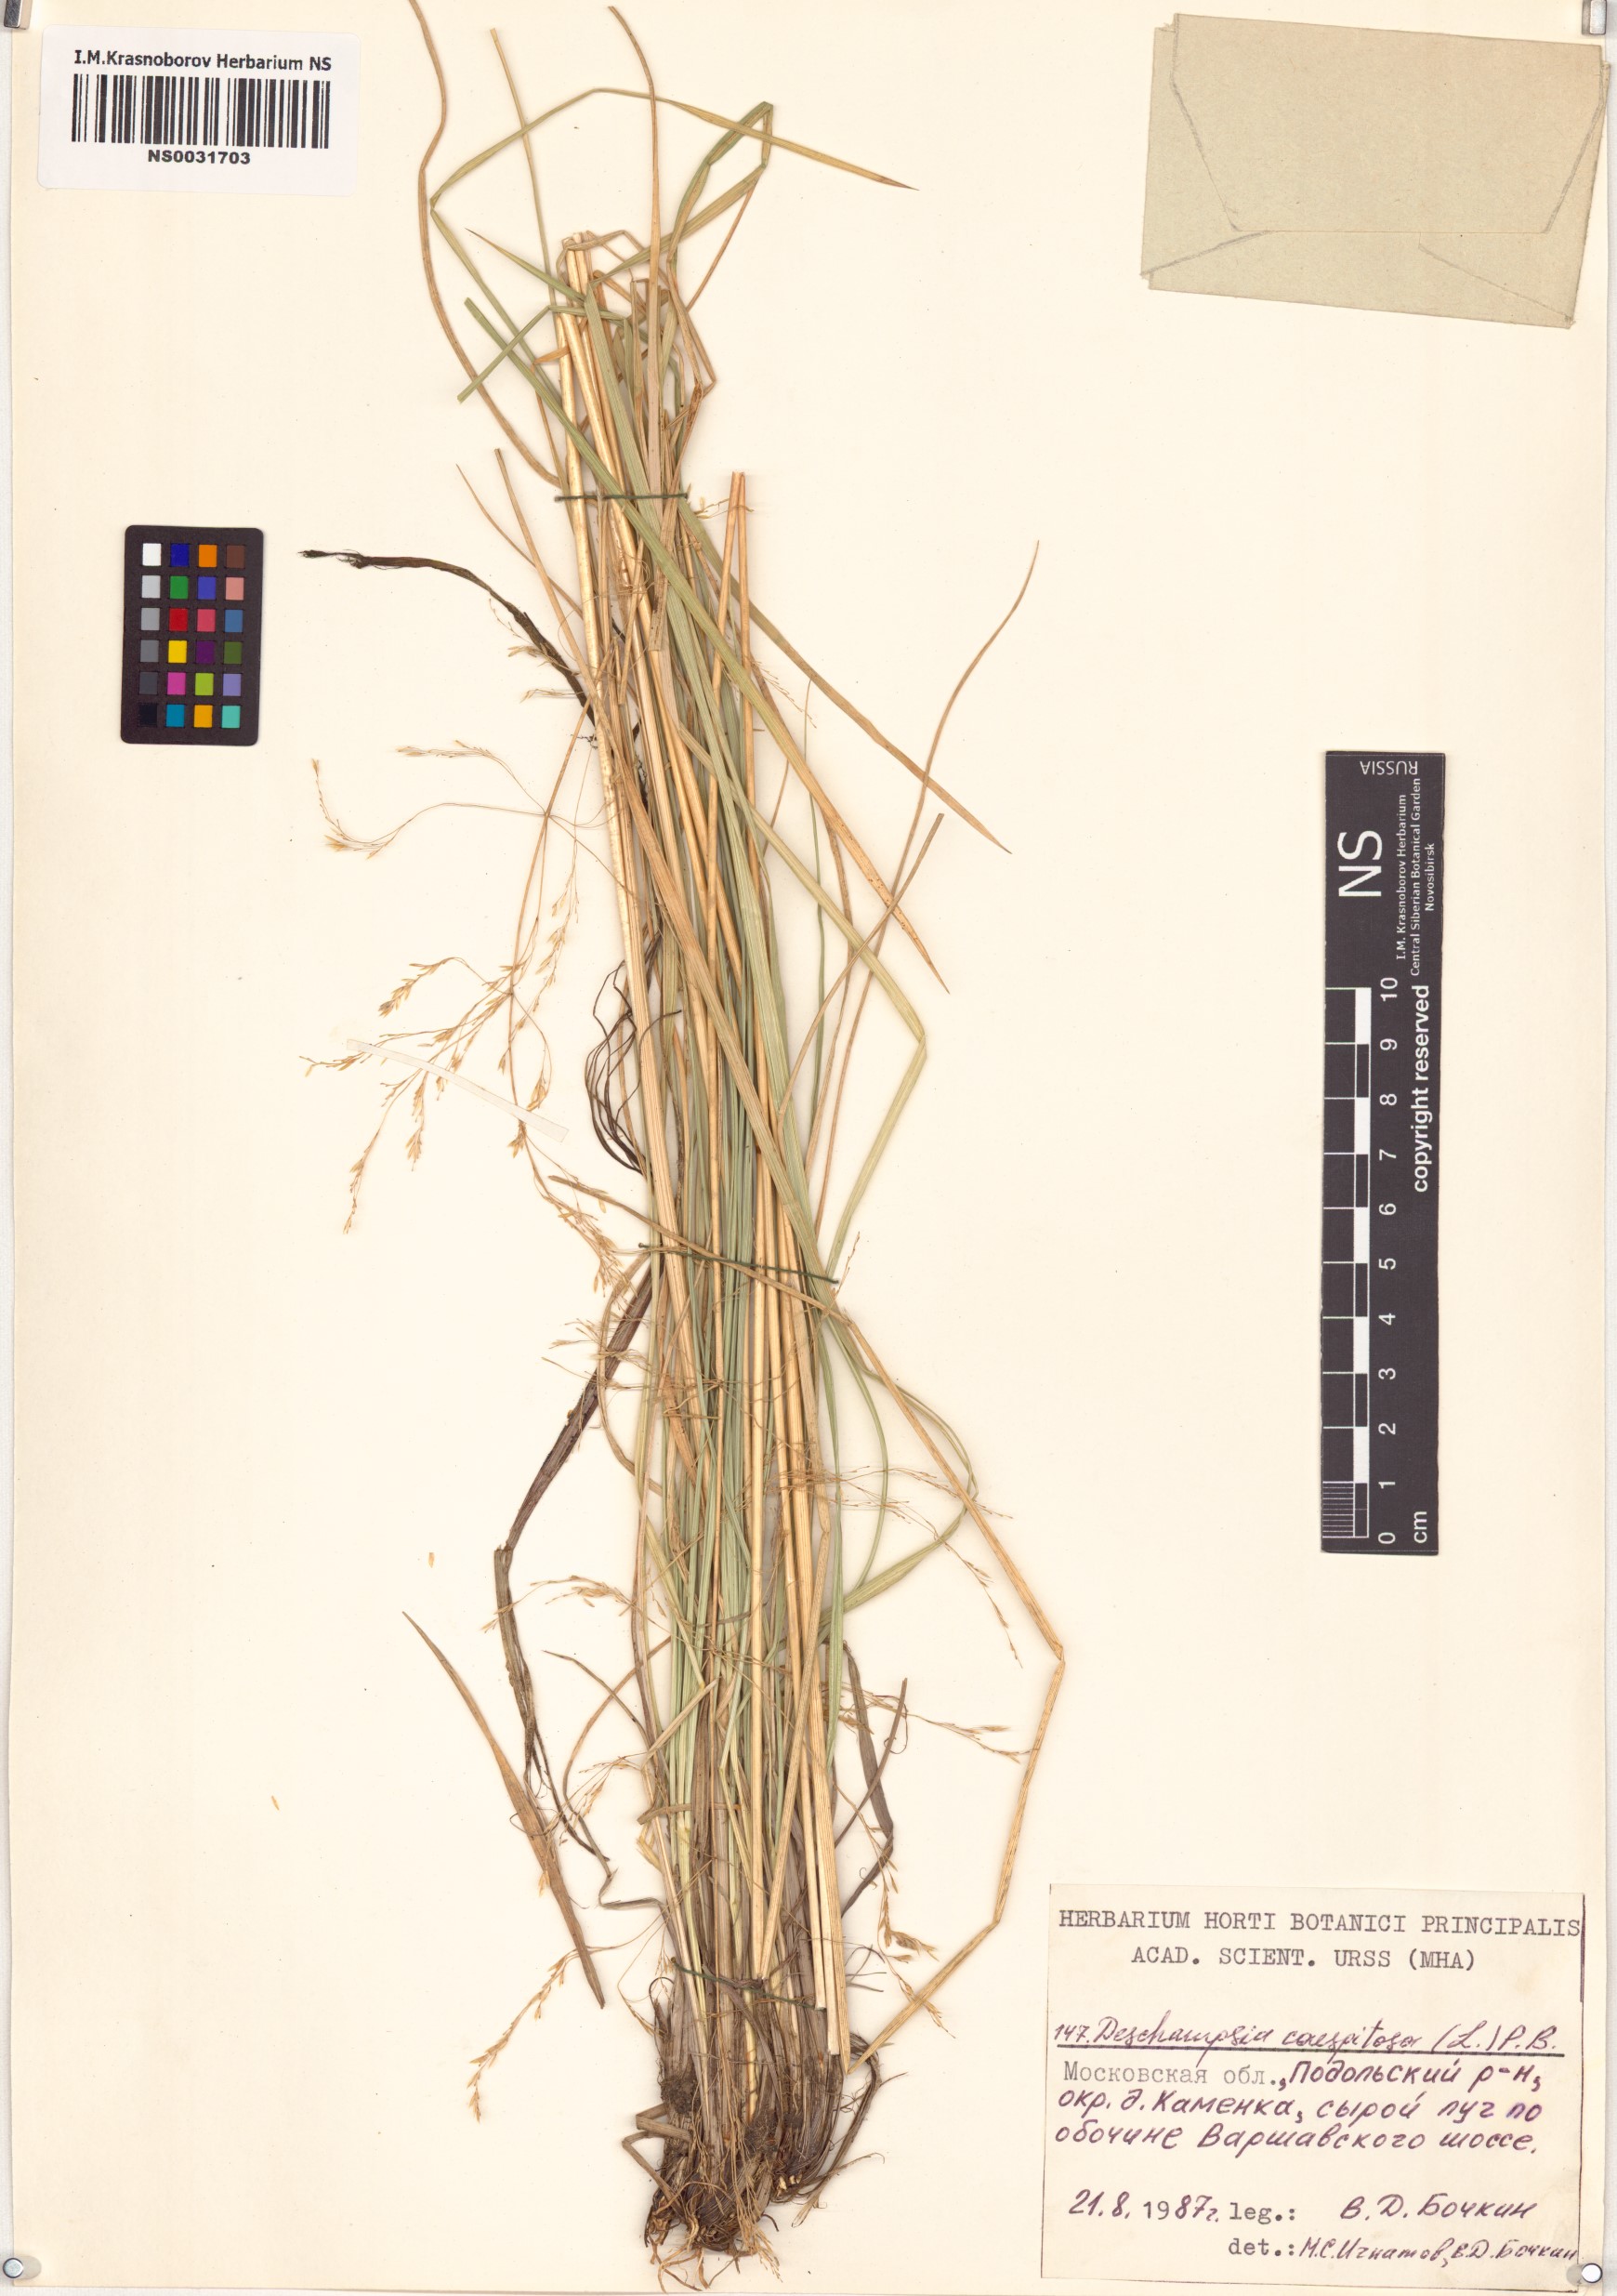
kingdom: Plantae
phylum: Tracheophyta
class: Liliopsida
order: Poales
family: Poaceae
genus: Deschampsia
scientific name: Deschampsia cespitosa
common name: Tufted hair-grass
